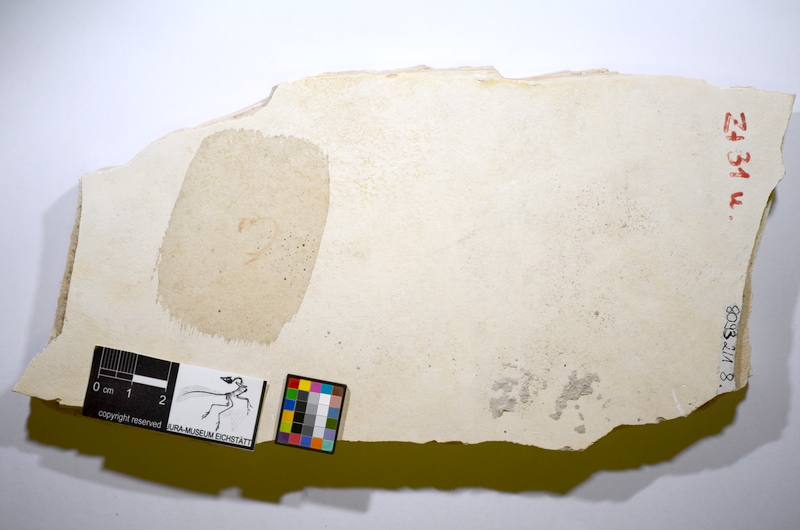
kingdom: Animalia
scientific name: Animalia
